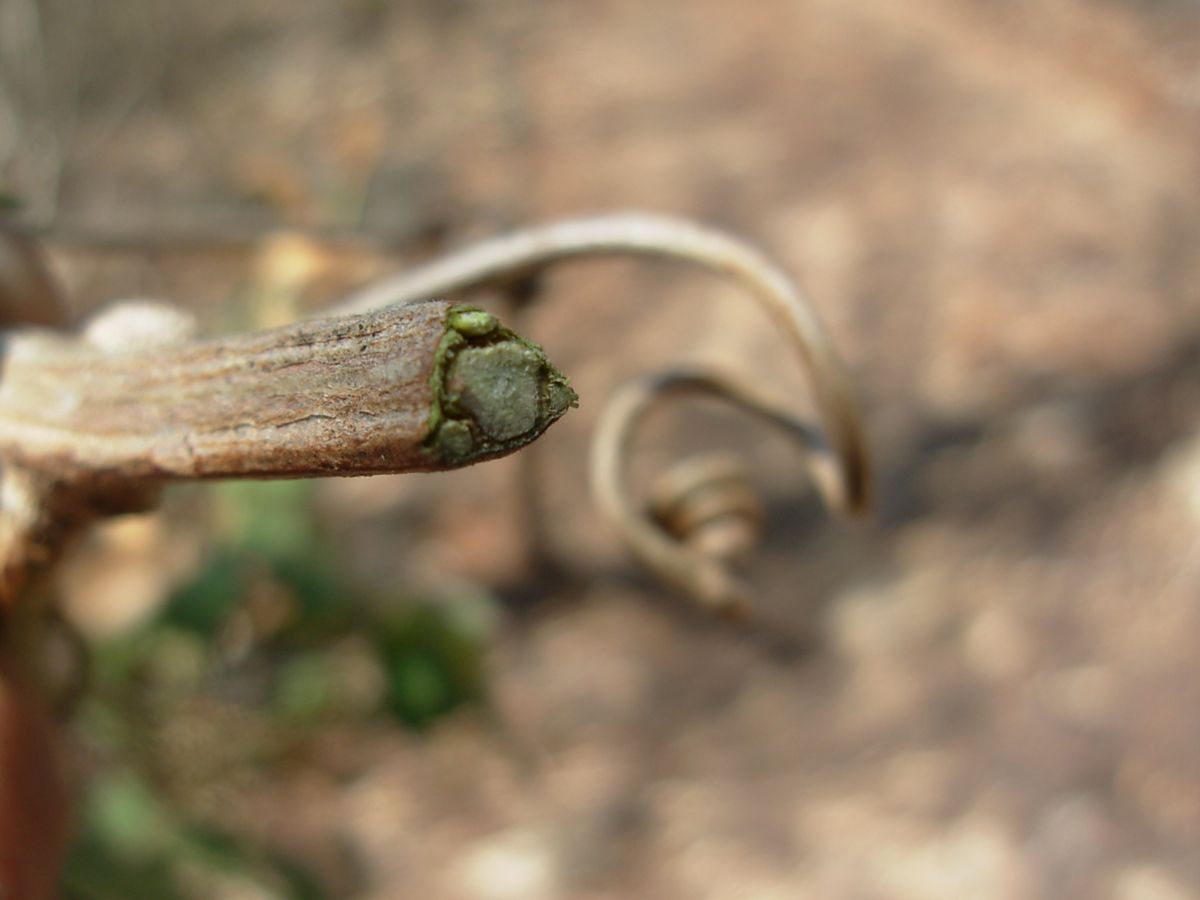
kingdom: Plantae
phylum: Tracheophyta
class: Magnoliopsida
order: Sapindales
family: Sapindaceae
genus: Serjania
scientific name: Serjania triquetra
